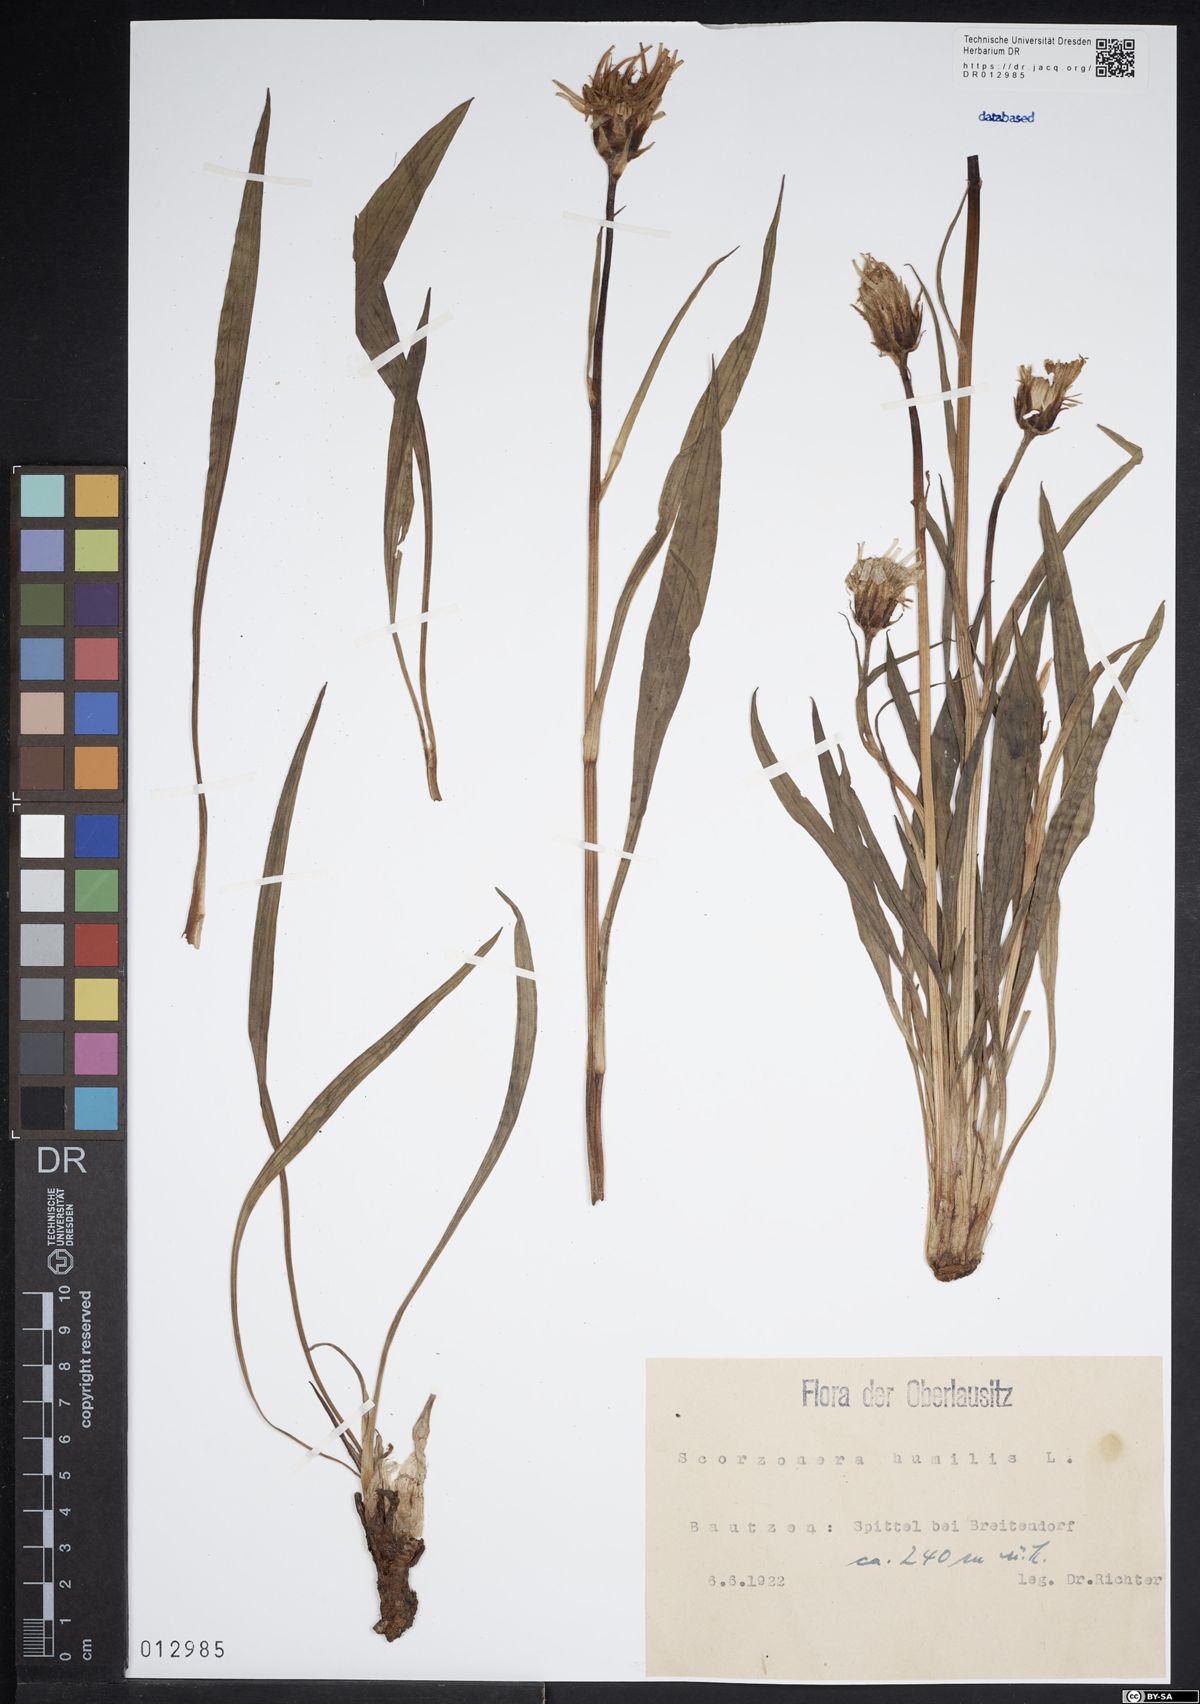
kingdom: Plantae
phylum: Tracheophyta
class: Magnoliopsida
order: Asterales
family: Asteraceae
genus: Scorzonera
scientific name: Scorzonera humilis
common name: Viper's-grass
